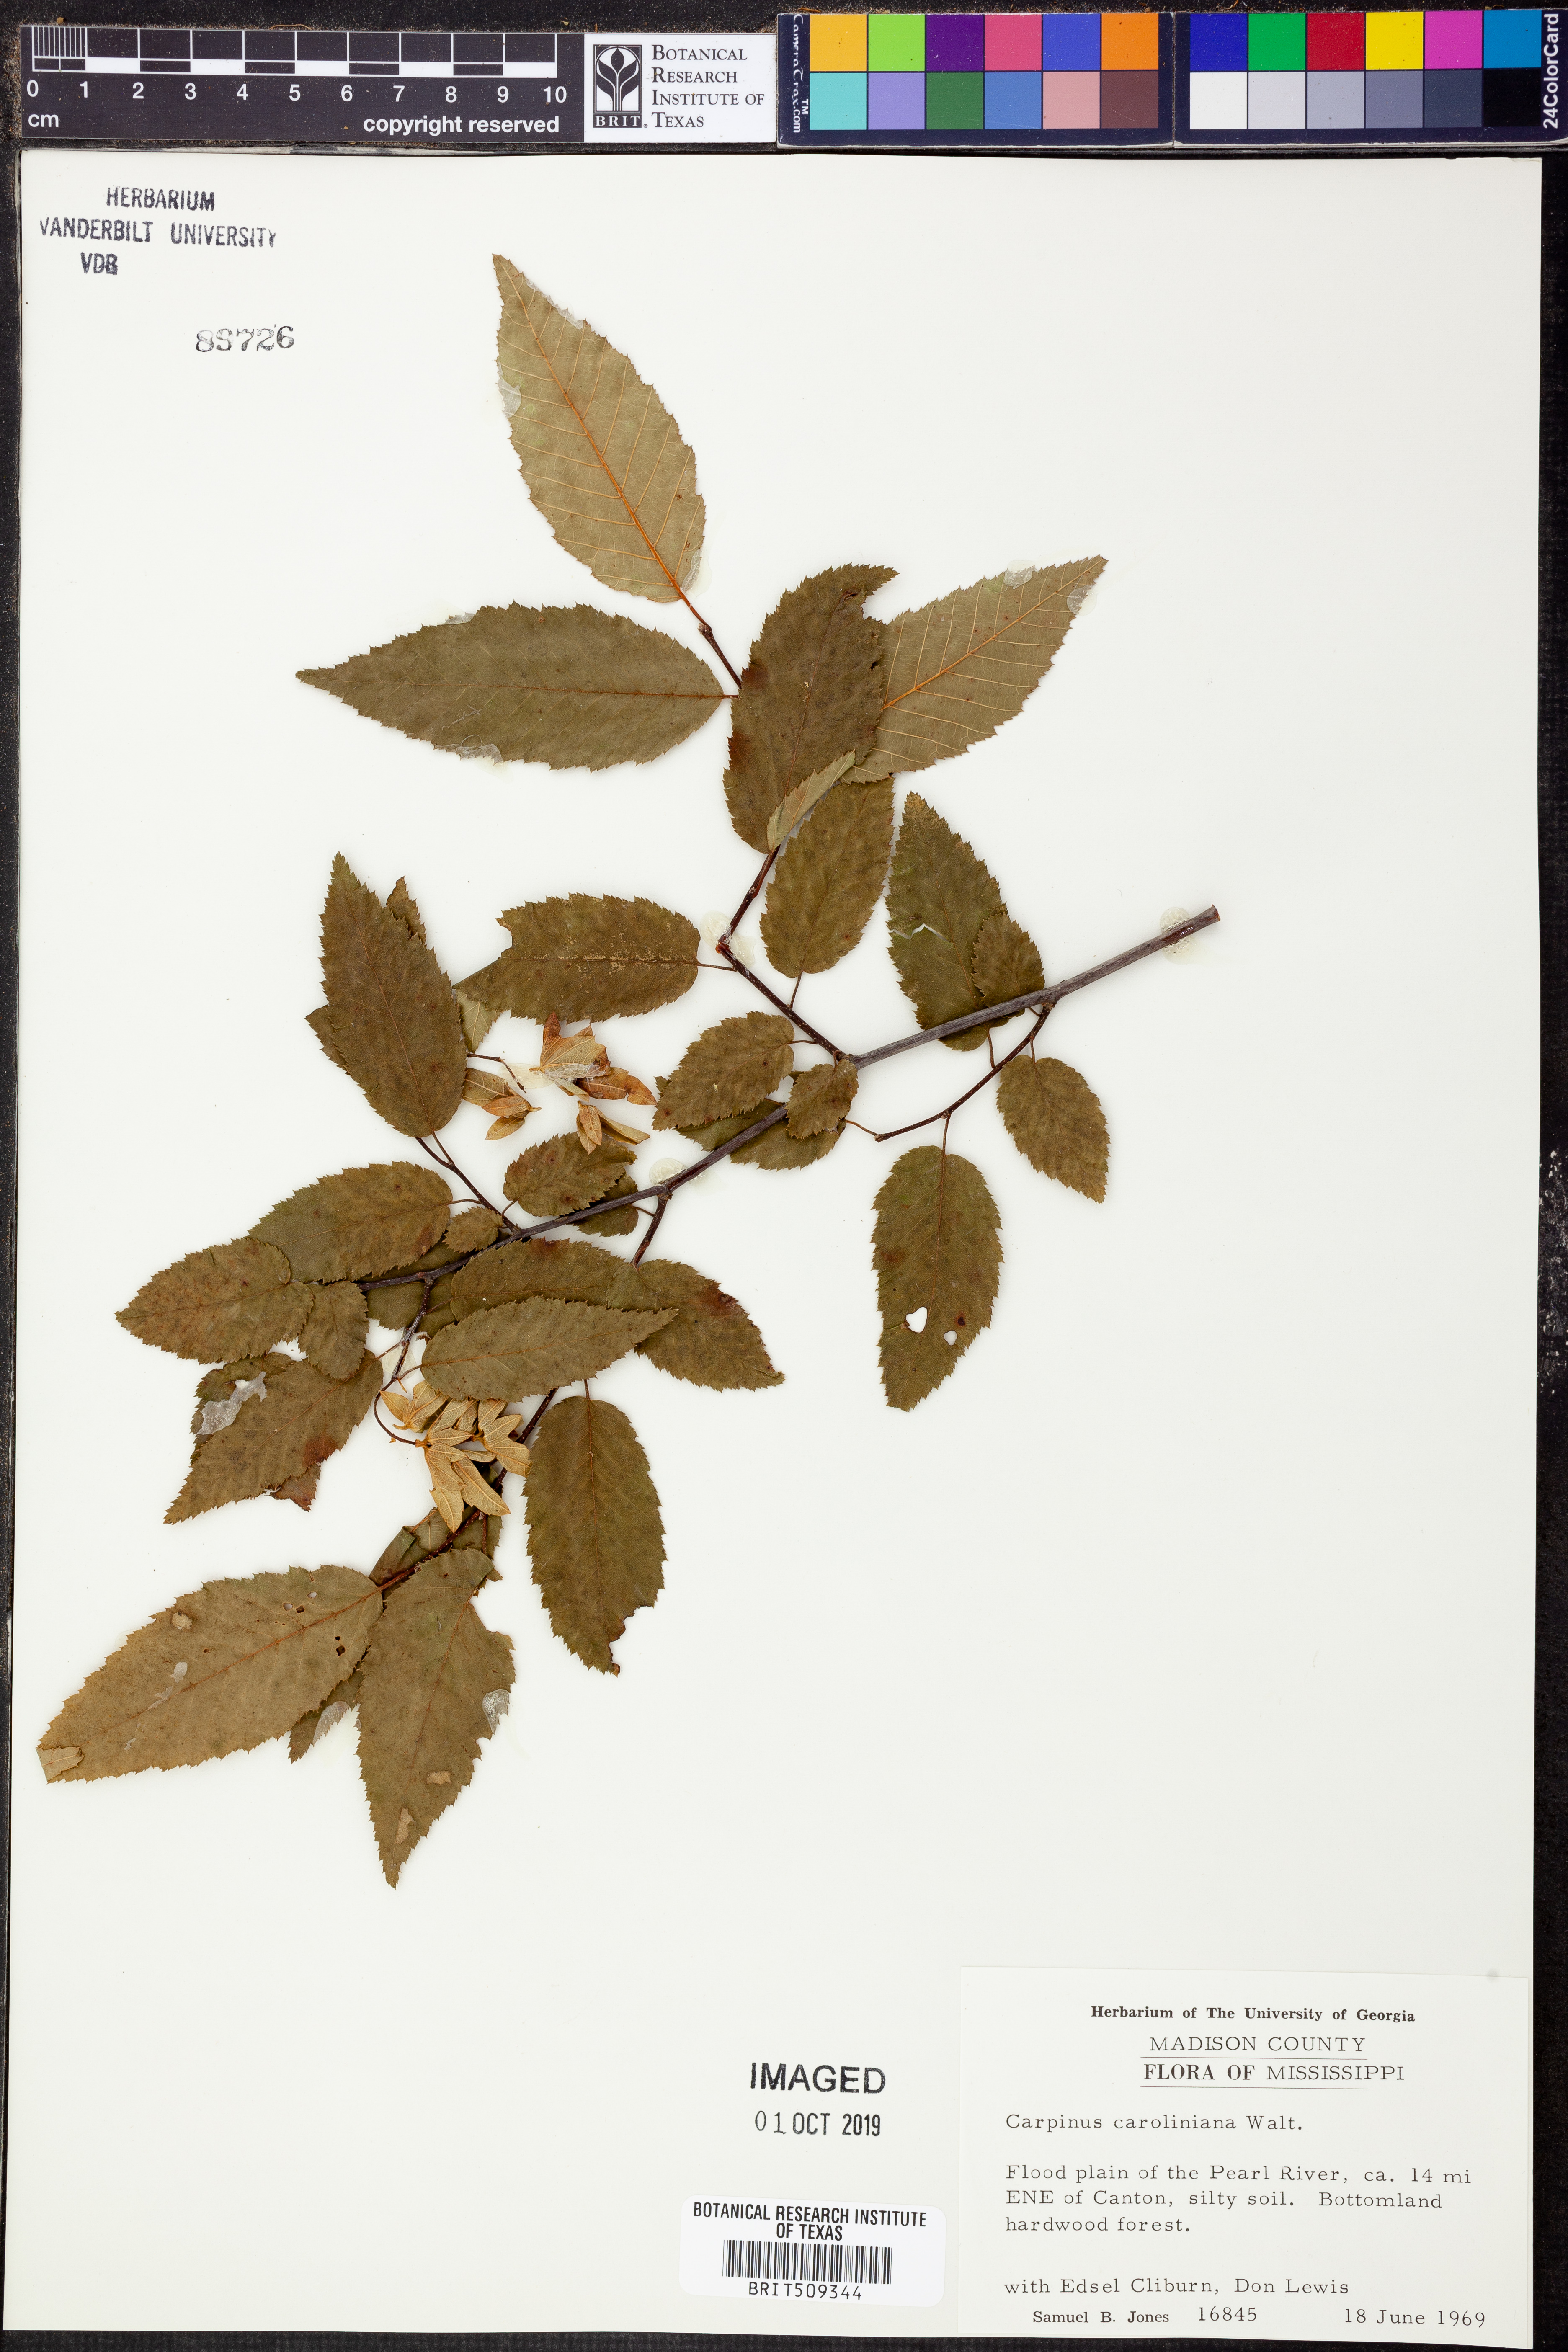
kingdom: Plantae
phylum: Tracheophyta
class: Magnoliopsida
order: Fagales
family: Betulaceae
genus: Carpinus
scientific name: Carpinus caroliniana
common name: American hornbeam
